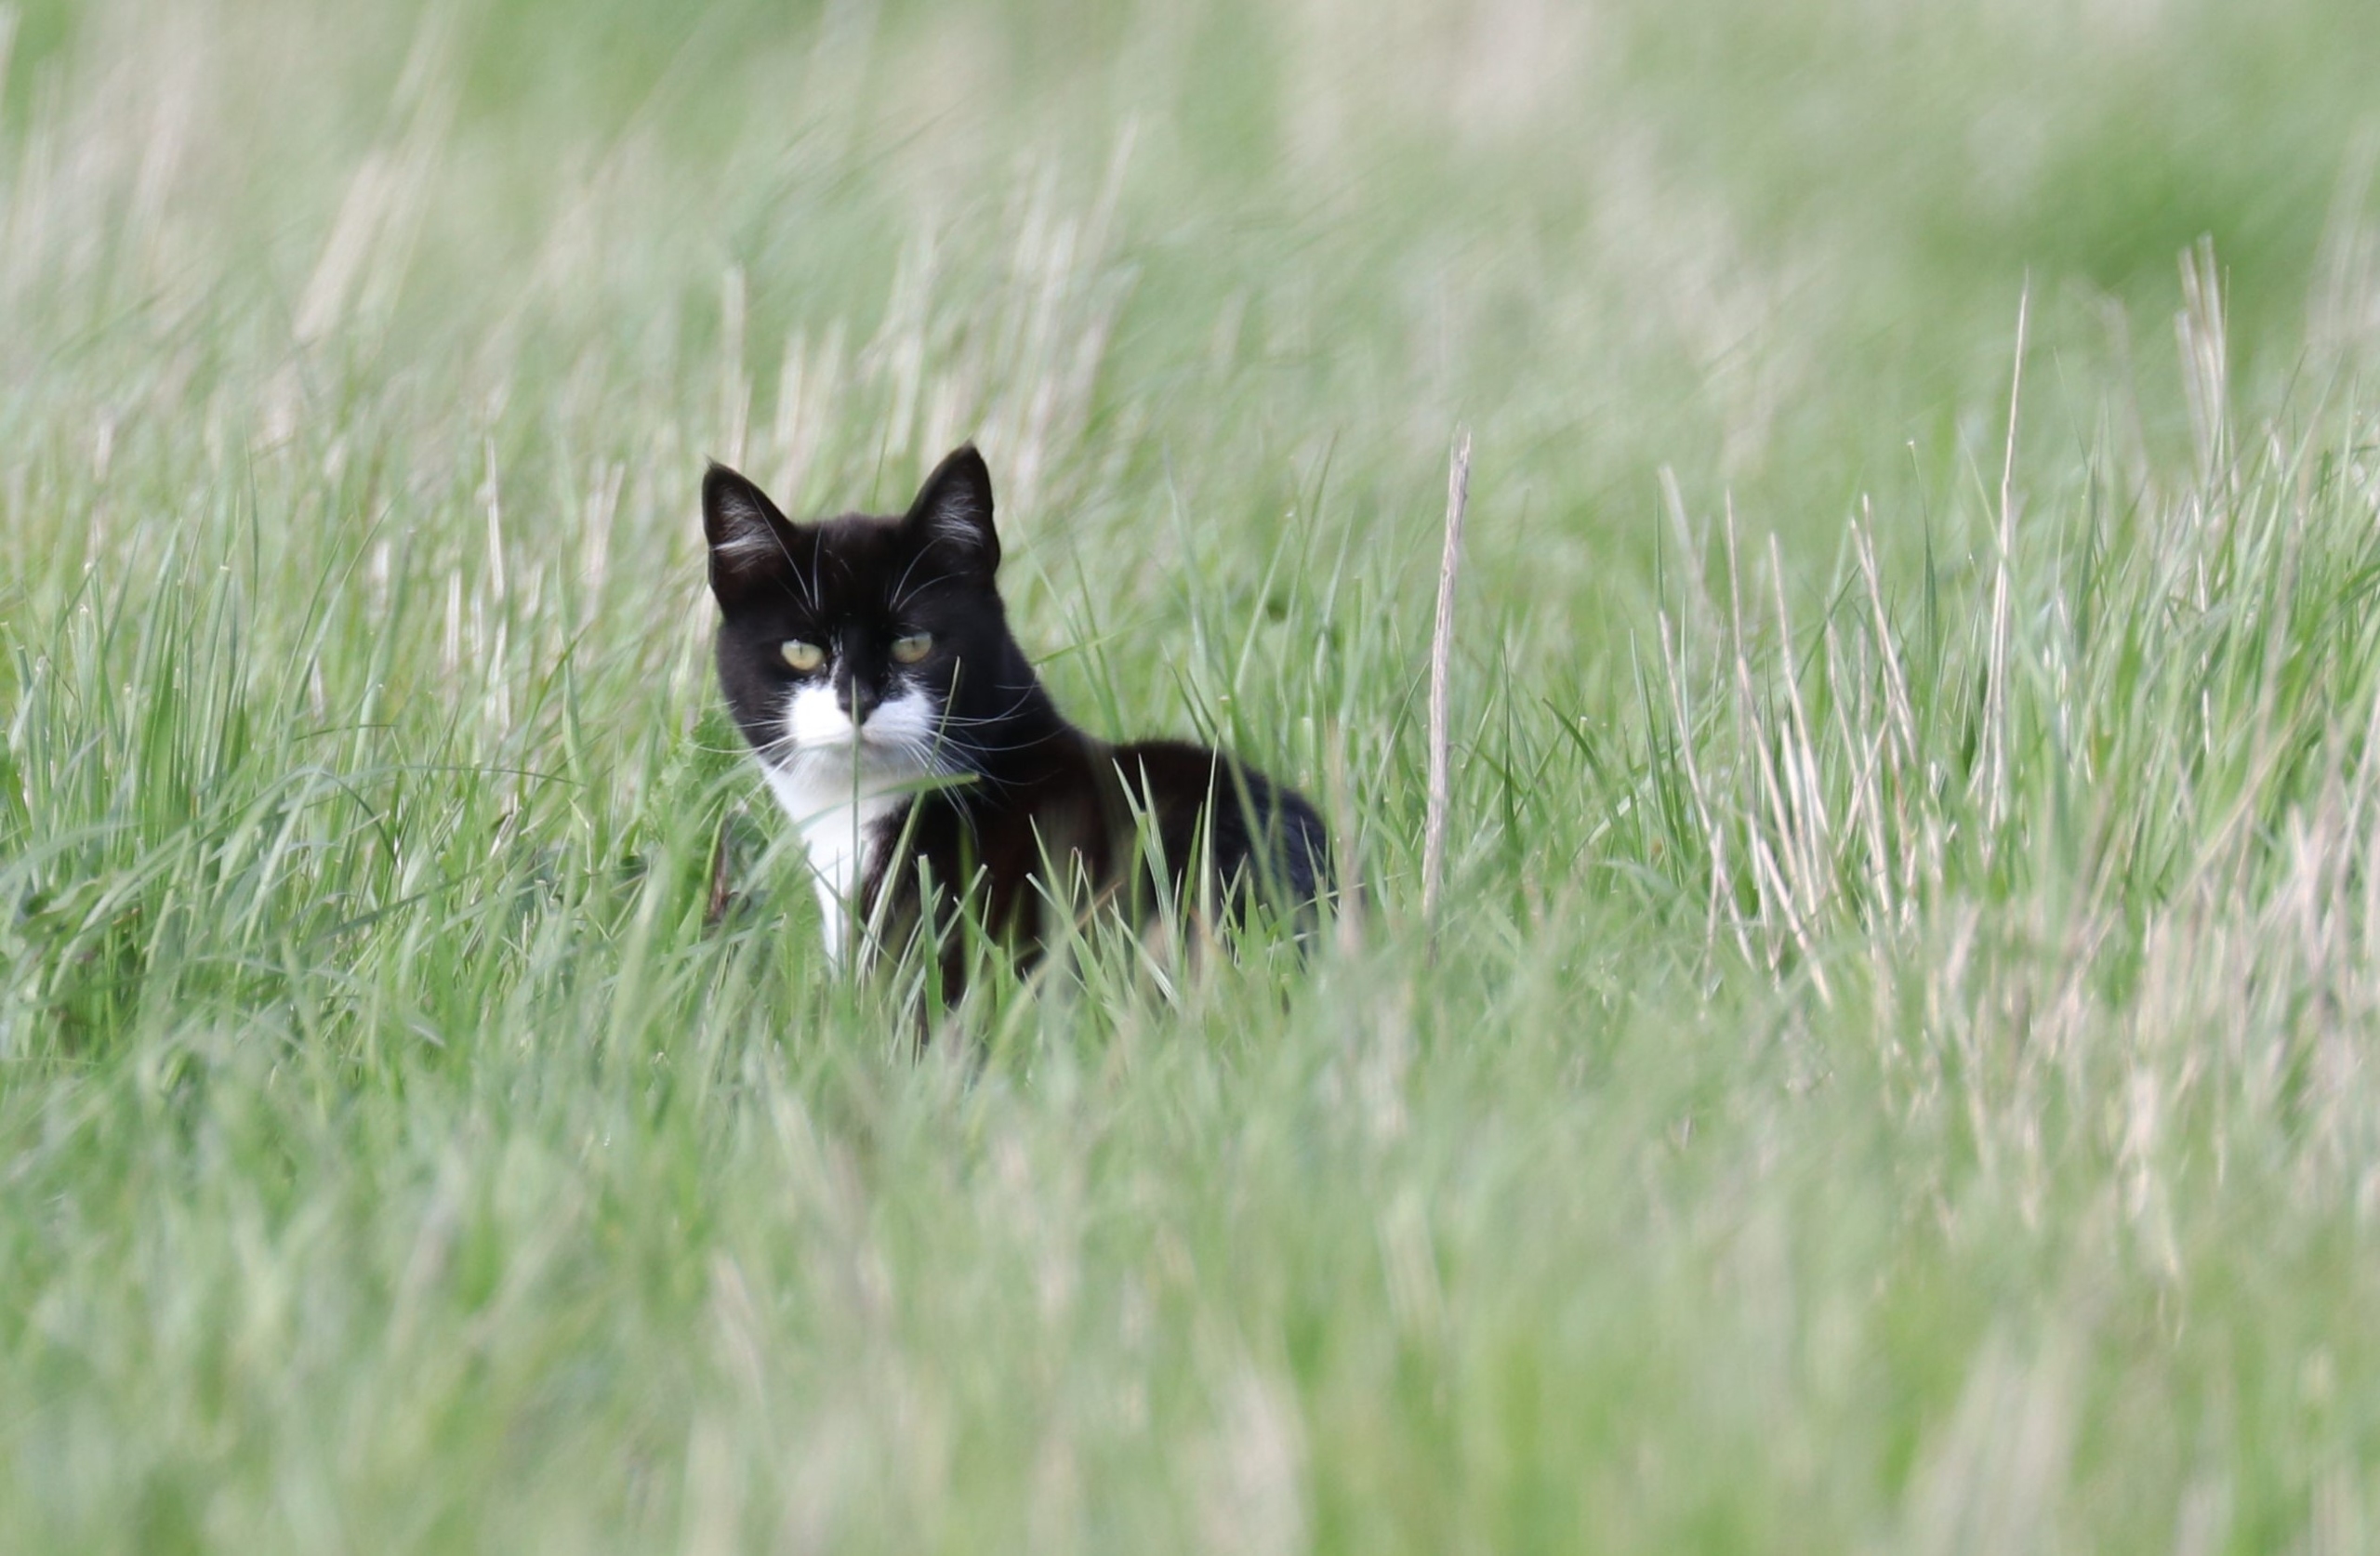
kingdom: Animalia
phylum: Chordata
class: Mammalia
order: Carnivora
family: Felidae
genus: Felis
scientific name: Felis catus
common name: Tamkat
